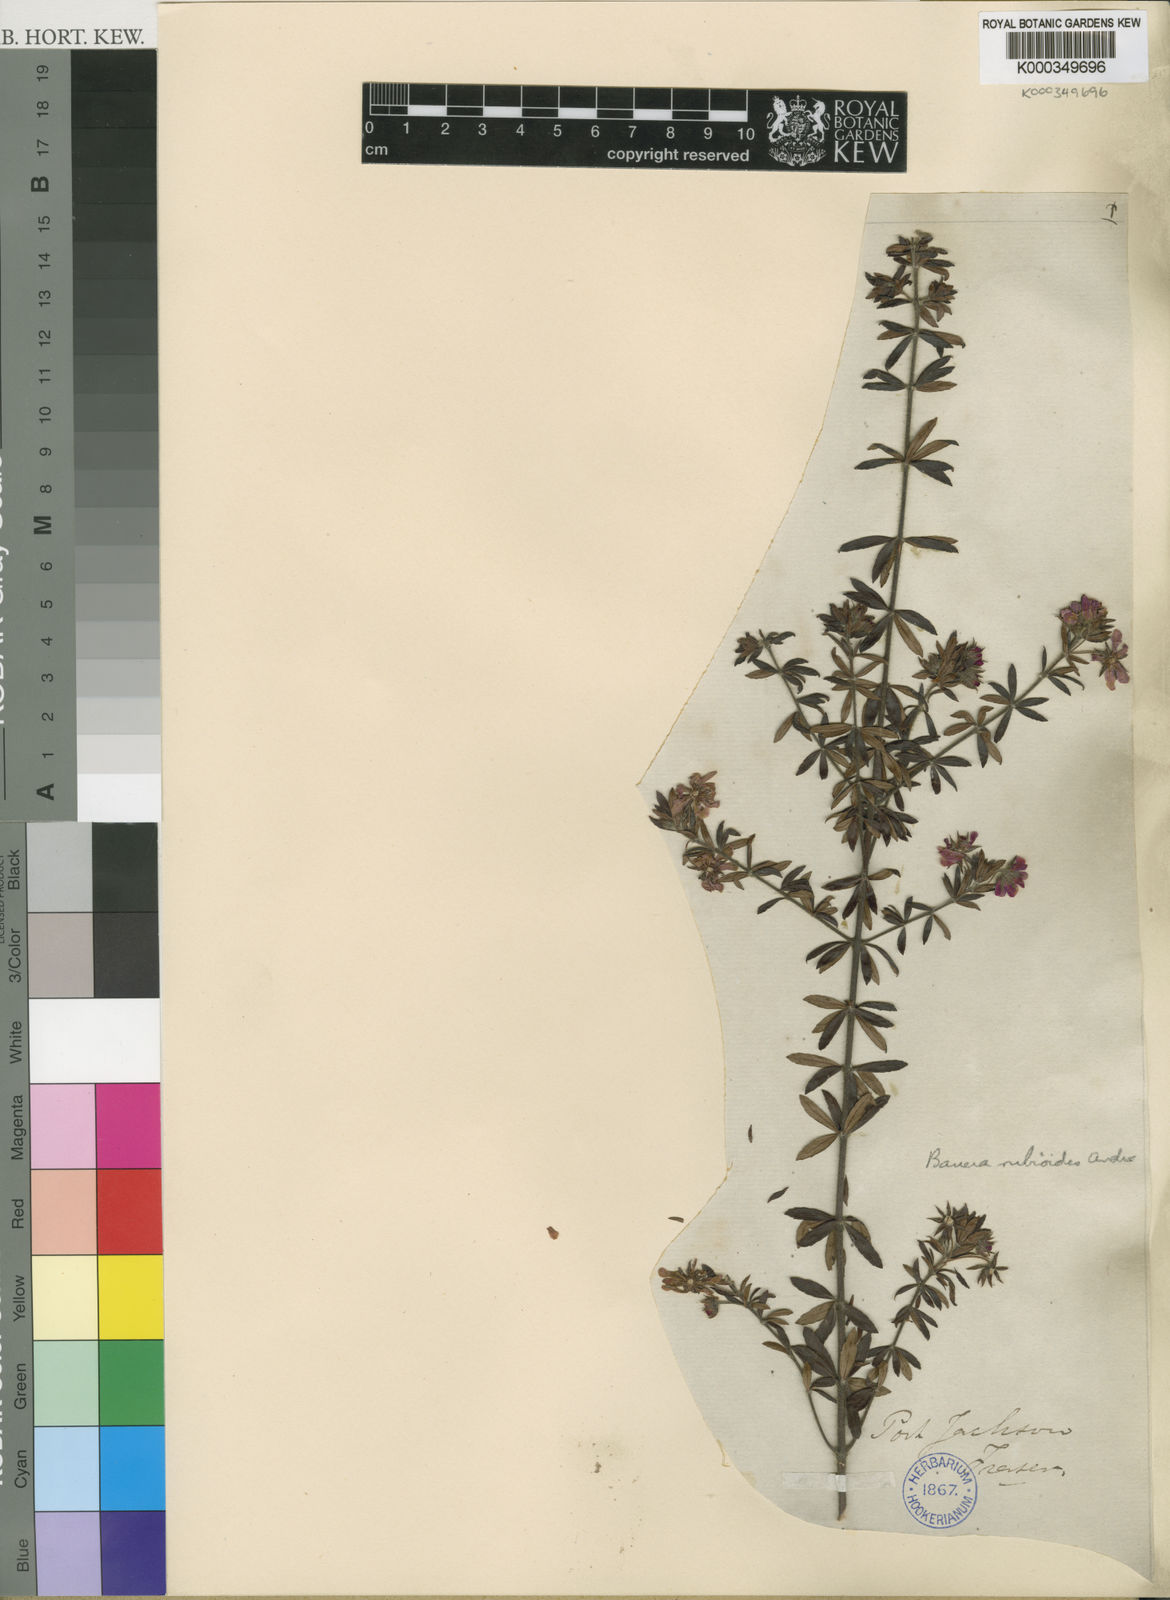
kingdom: Plantae
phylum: Tracheophyta
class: Magnoliopsida
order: Oxalidales
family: Cunoniaceae
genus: Bauera
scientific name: Bauera rubioides
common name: River-rose
